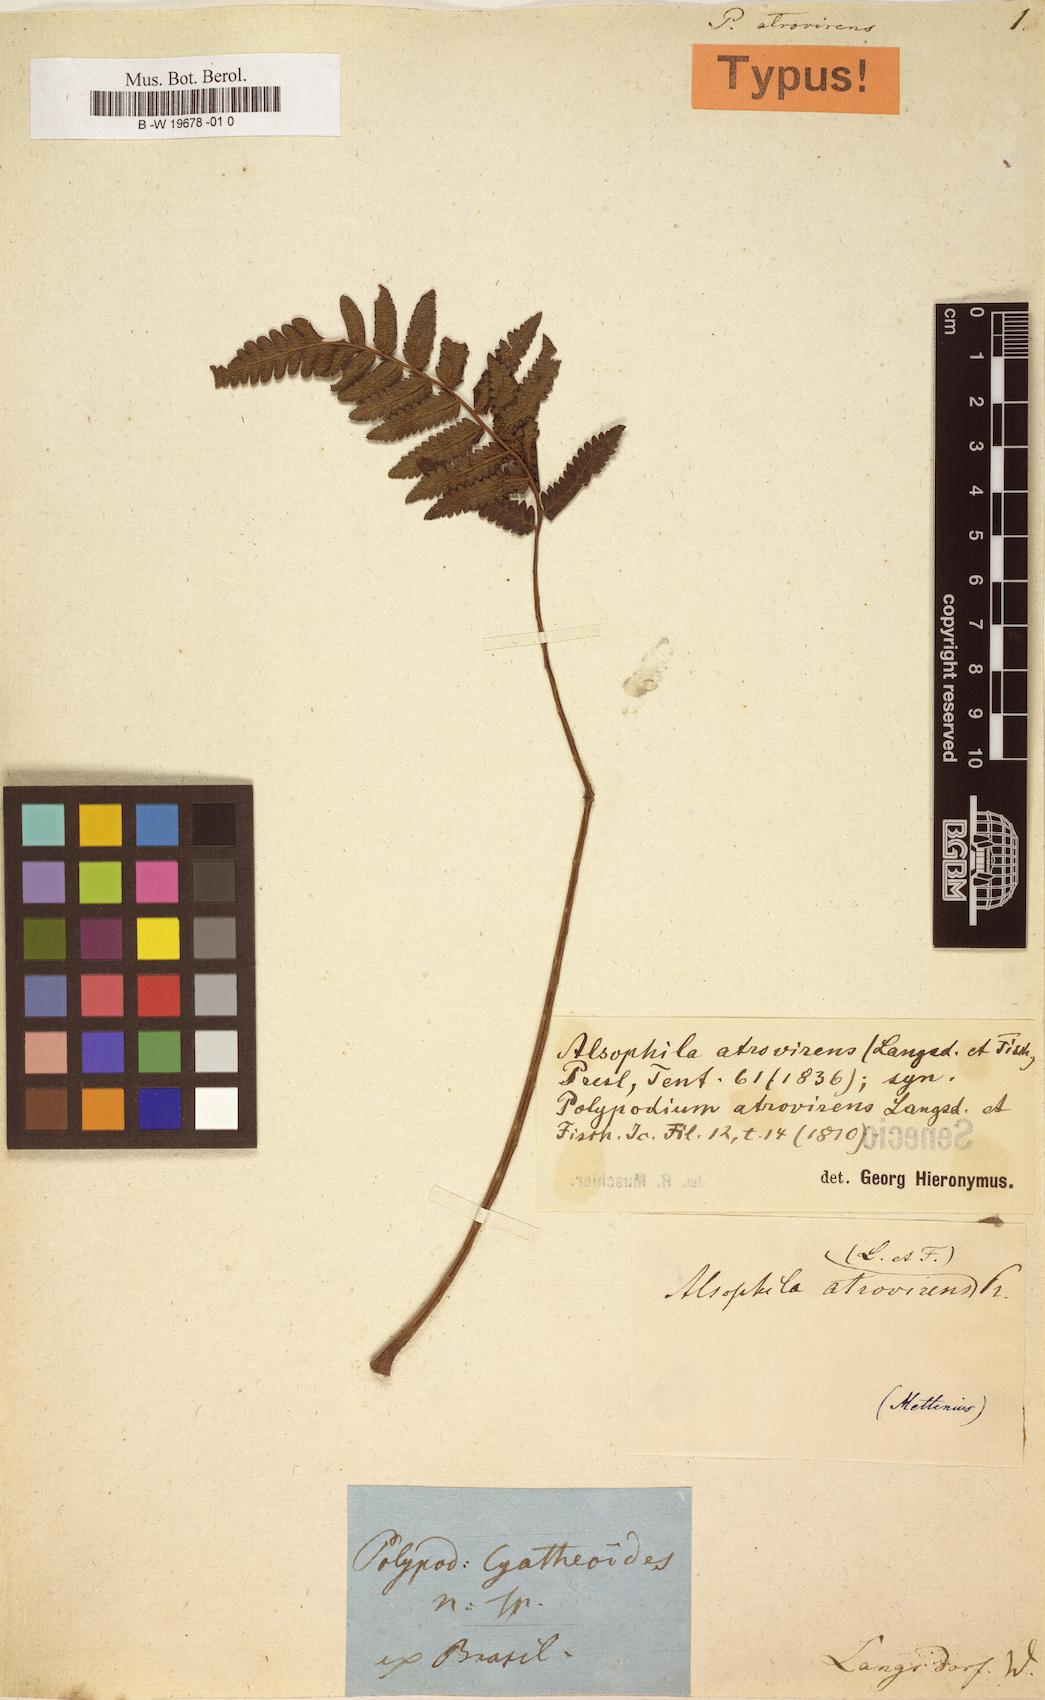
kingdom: Plantae
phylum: Tracheophyta
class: Polypodiopsida
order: Cyatheales
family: Cyatheaceae
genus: Cyathea
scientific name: Cyathea atrovirens
